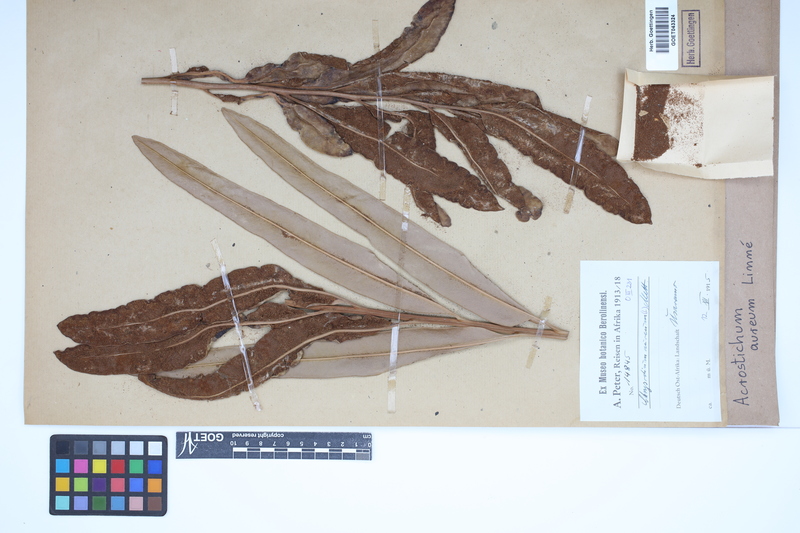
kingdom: Plantae
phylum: Tracheophyta
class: Polypodiopsida
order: Polypodiales
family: Pteridaceae
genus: Acrostichum
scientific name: Acrostichum aureum
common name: Leather fern
